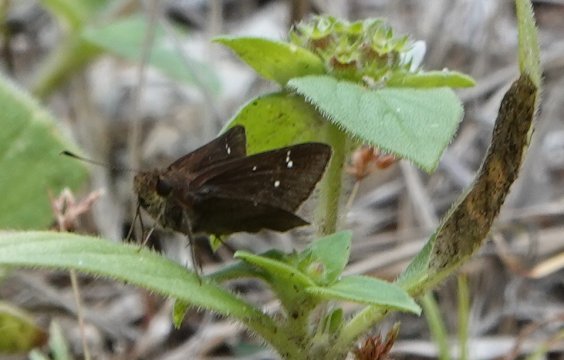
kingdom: Animalia
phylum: Arthropoda
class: Insecta
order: Lepidoptera
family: Hesperiidae
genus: Lerema
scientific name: Lerema accius
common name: Clouded Skipper
